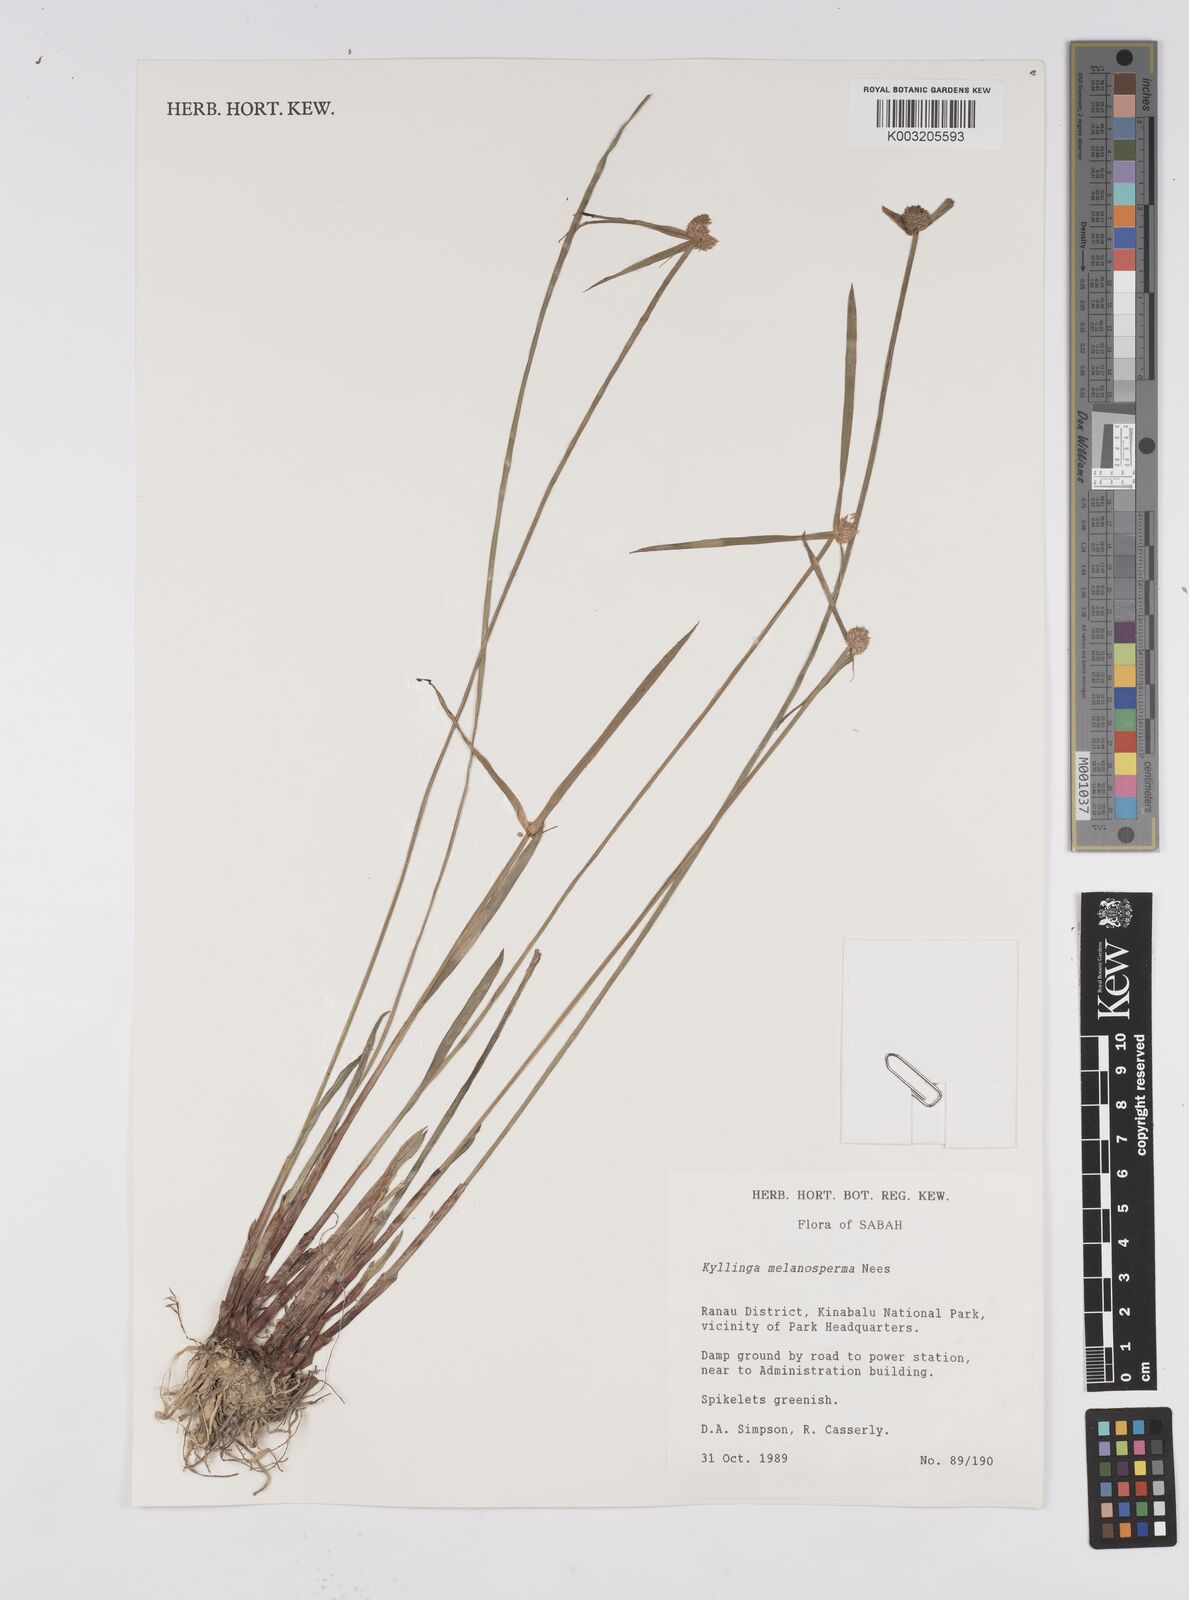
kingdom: Plantae
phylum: Tracheophyta
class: Liliopsida
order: Poales
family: Cyperaceae
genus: Cyperus
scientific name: Cyperus melanospermus
